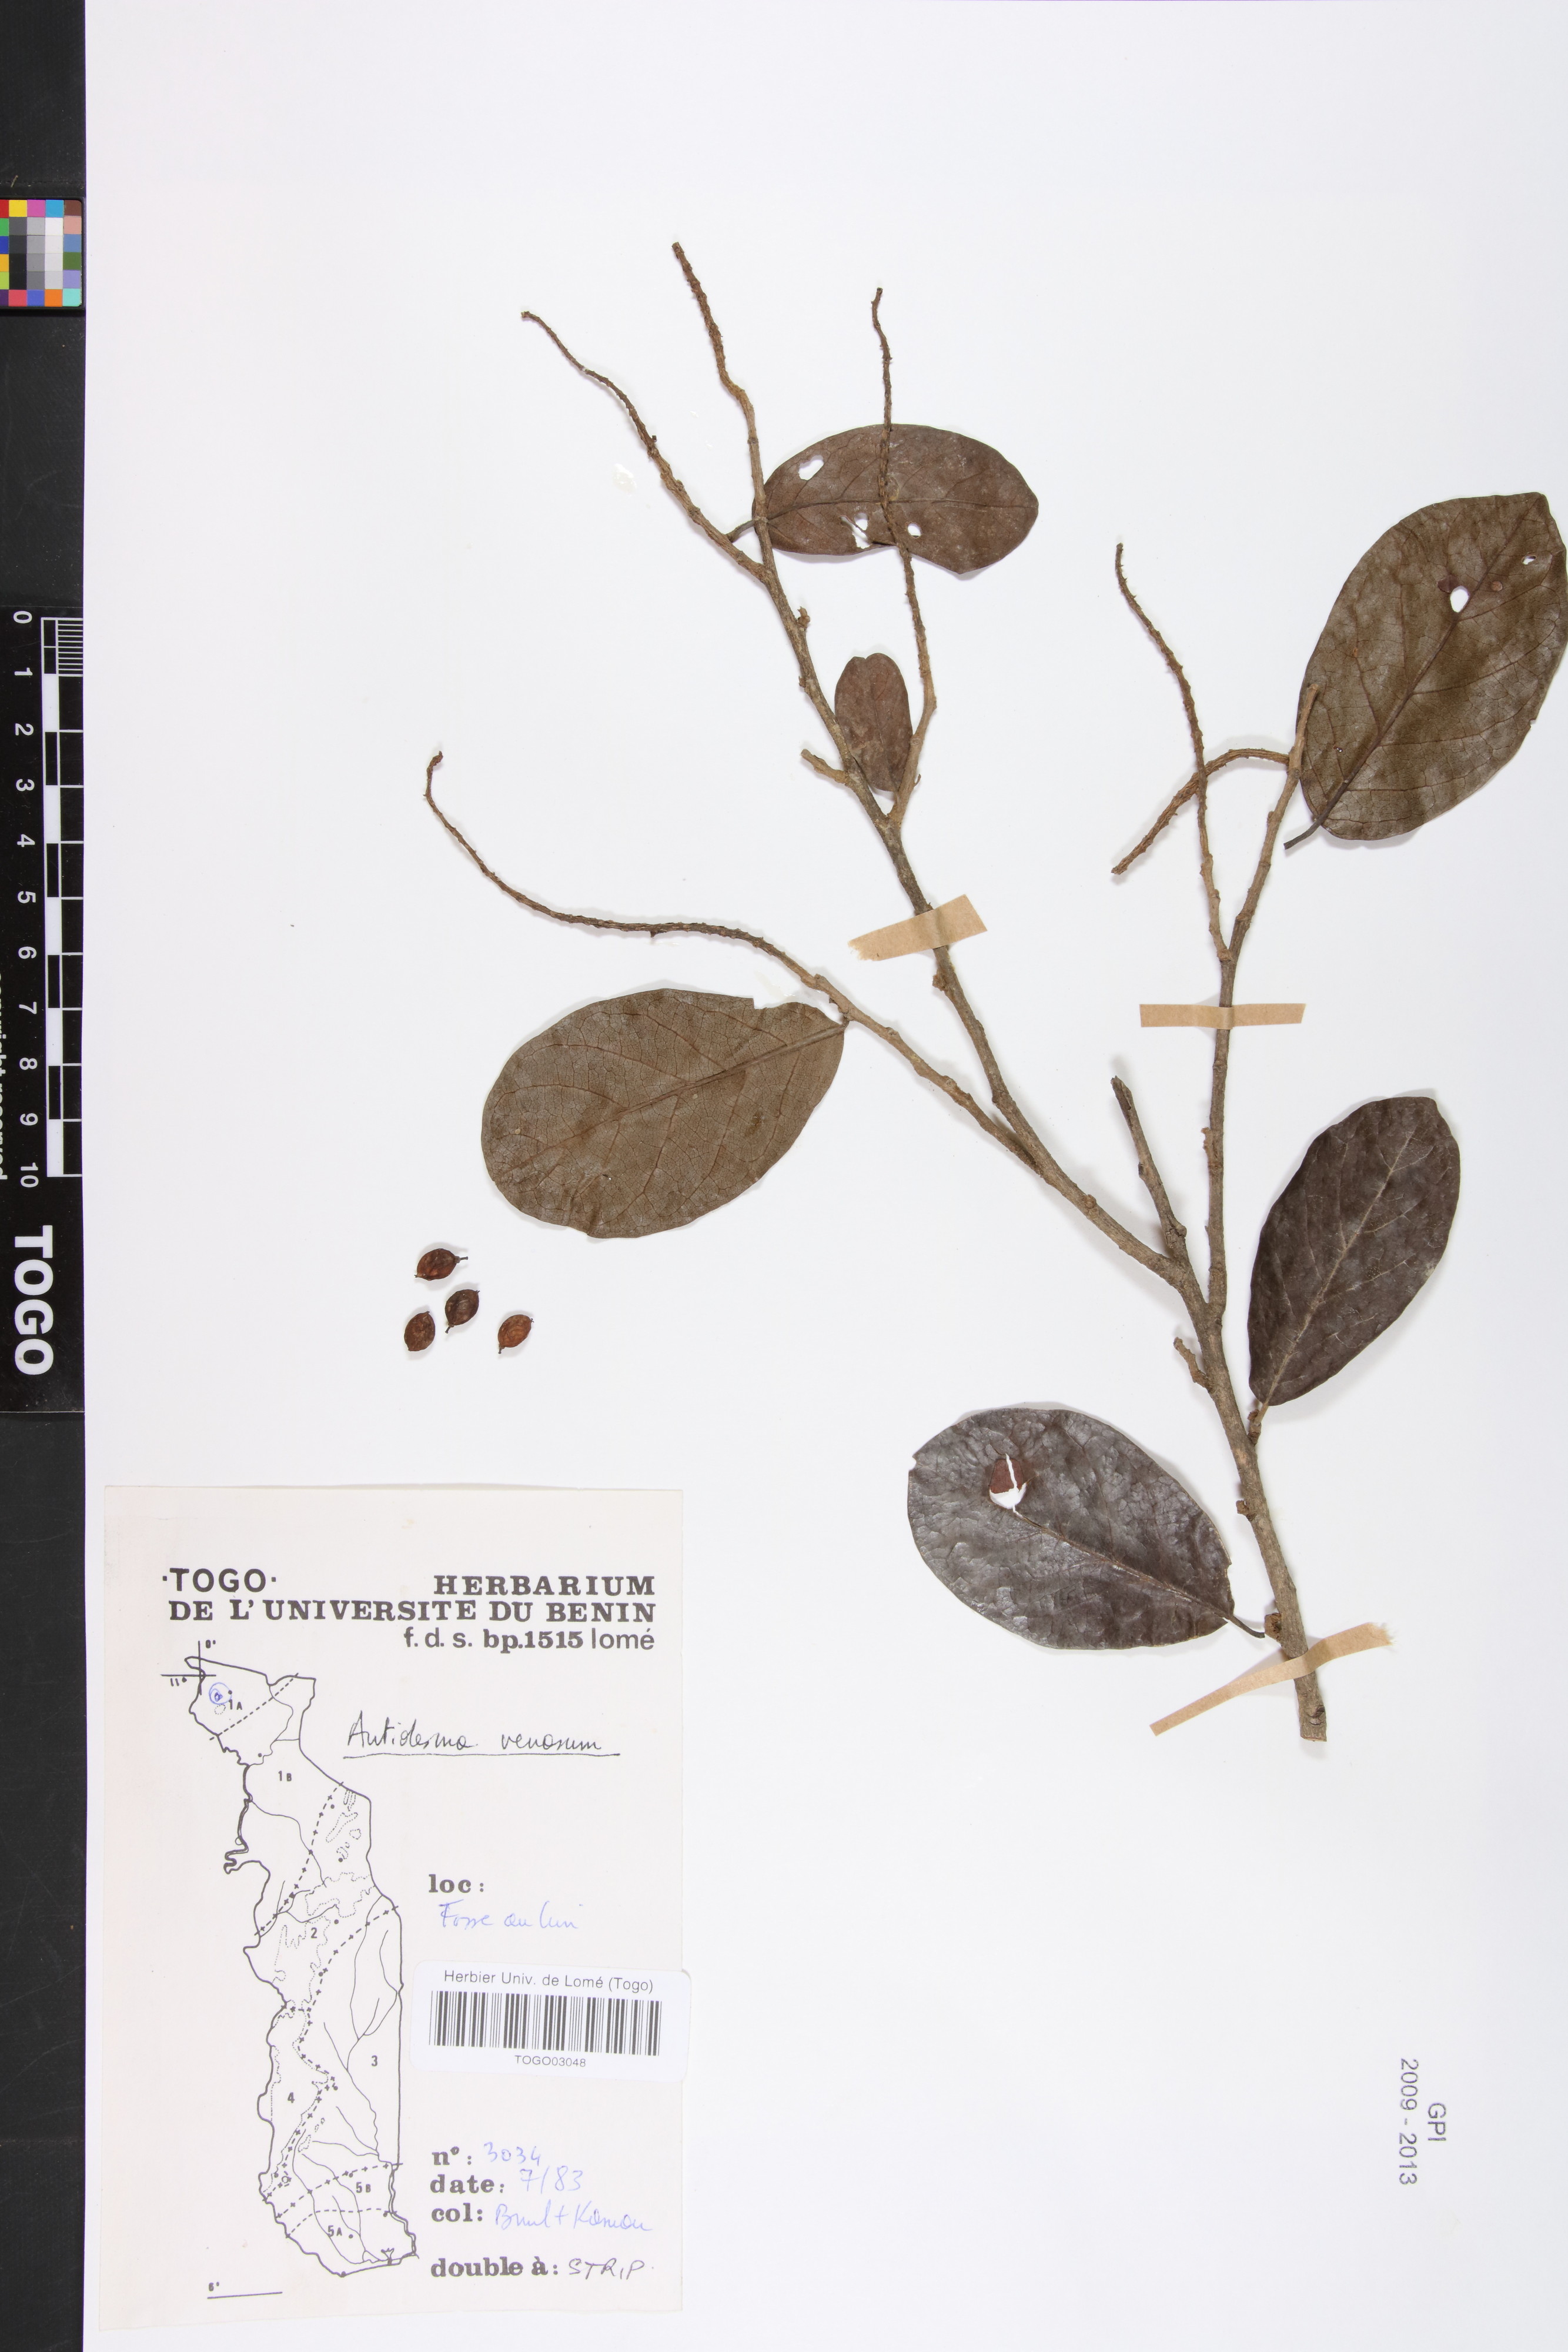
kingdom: Plantae
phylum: Tracheophyta
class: Magnoliopsida
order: Malpighiales
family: Phyllanthaceae
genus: Antidesma
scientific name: Antidesma venosum
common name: Tassel-berry
